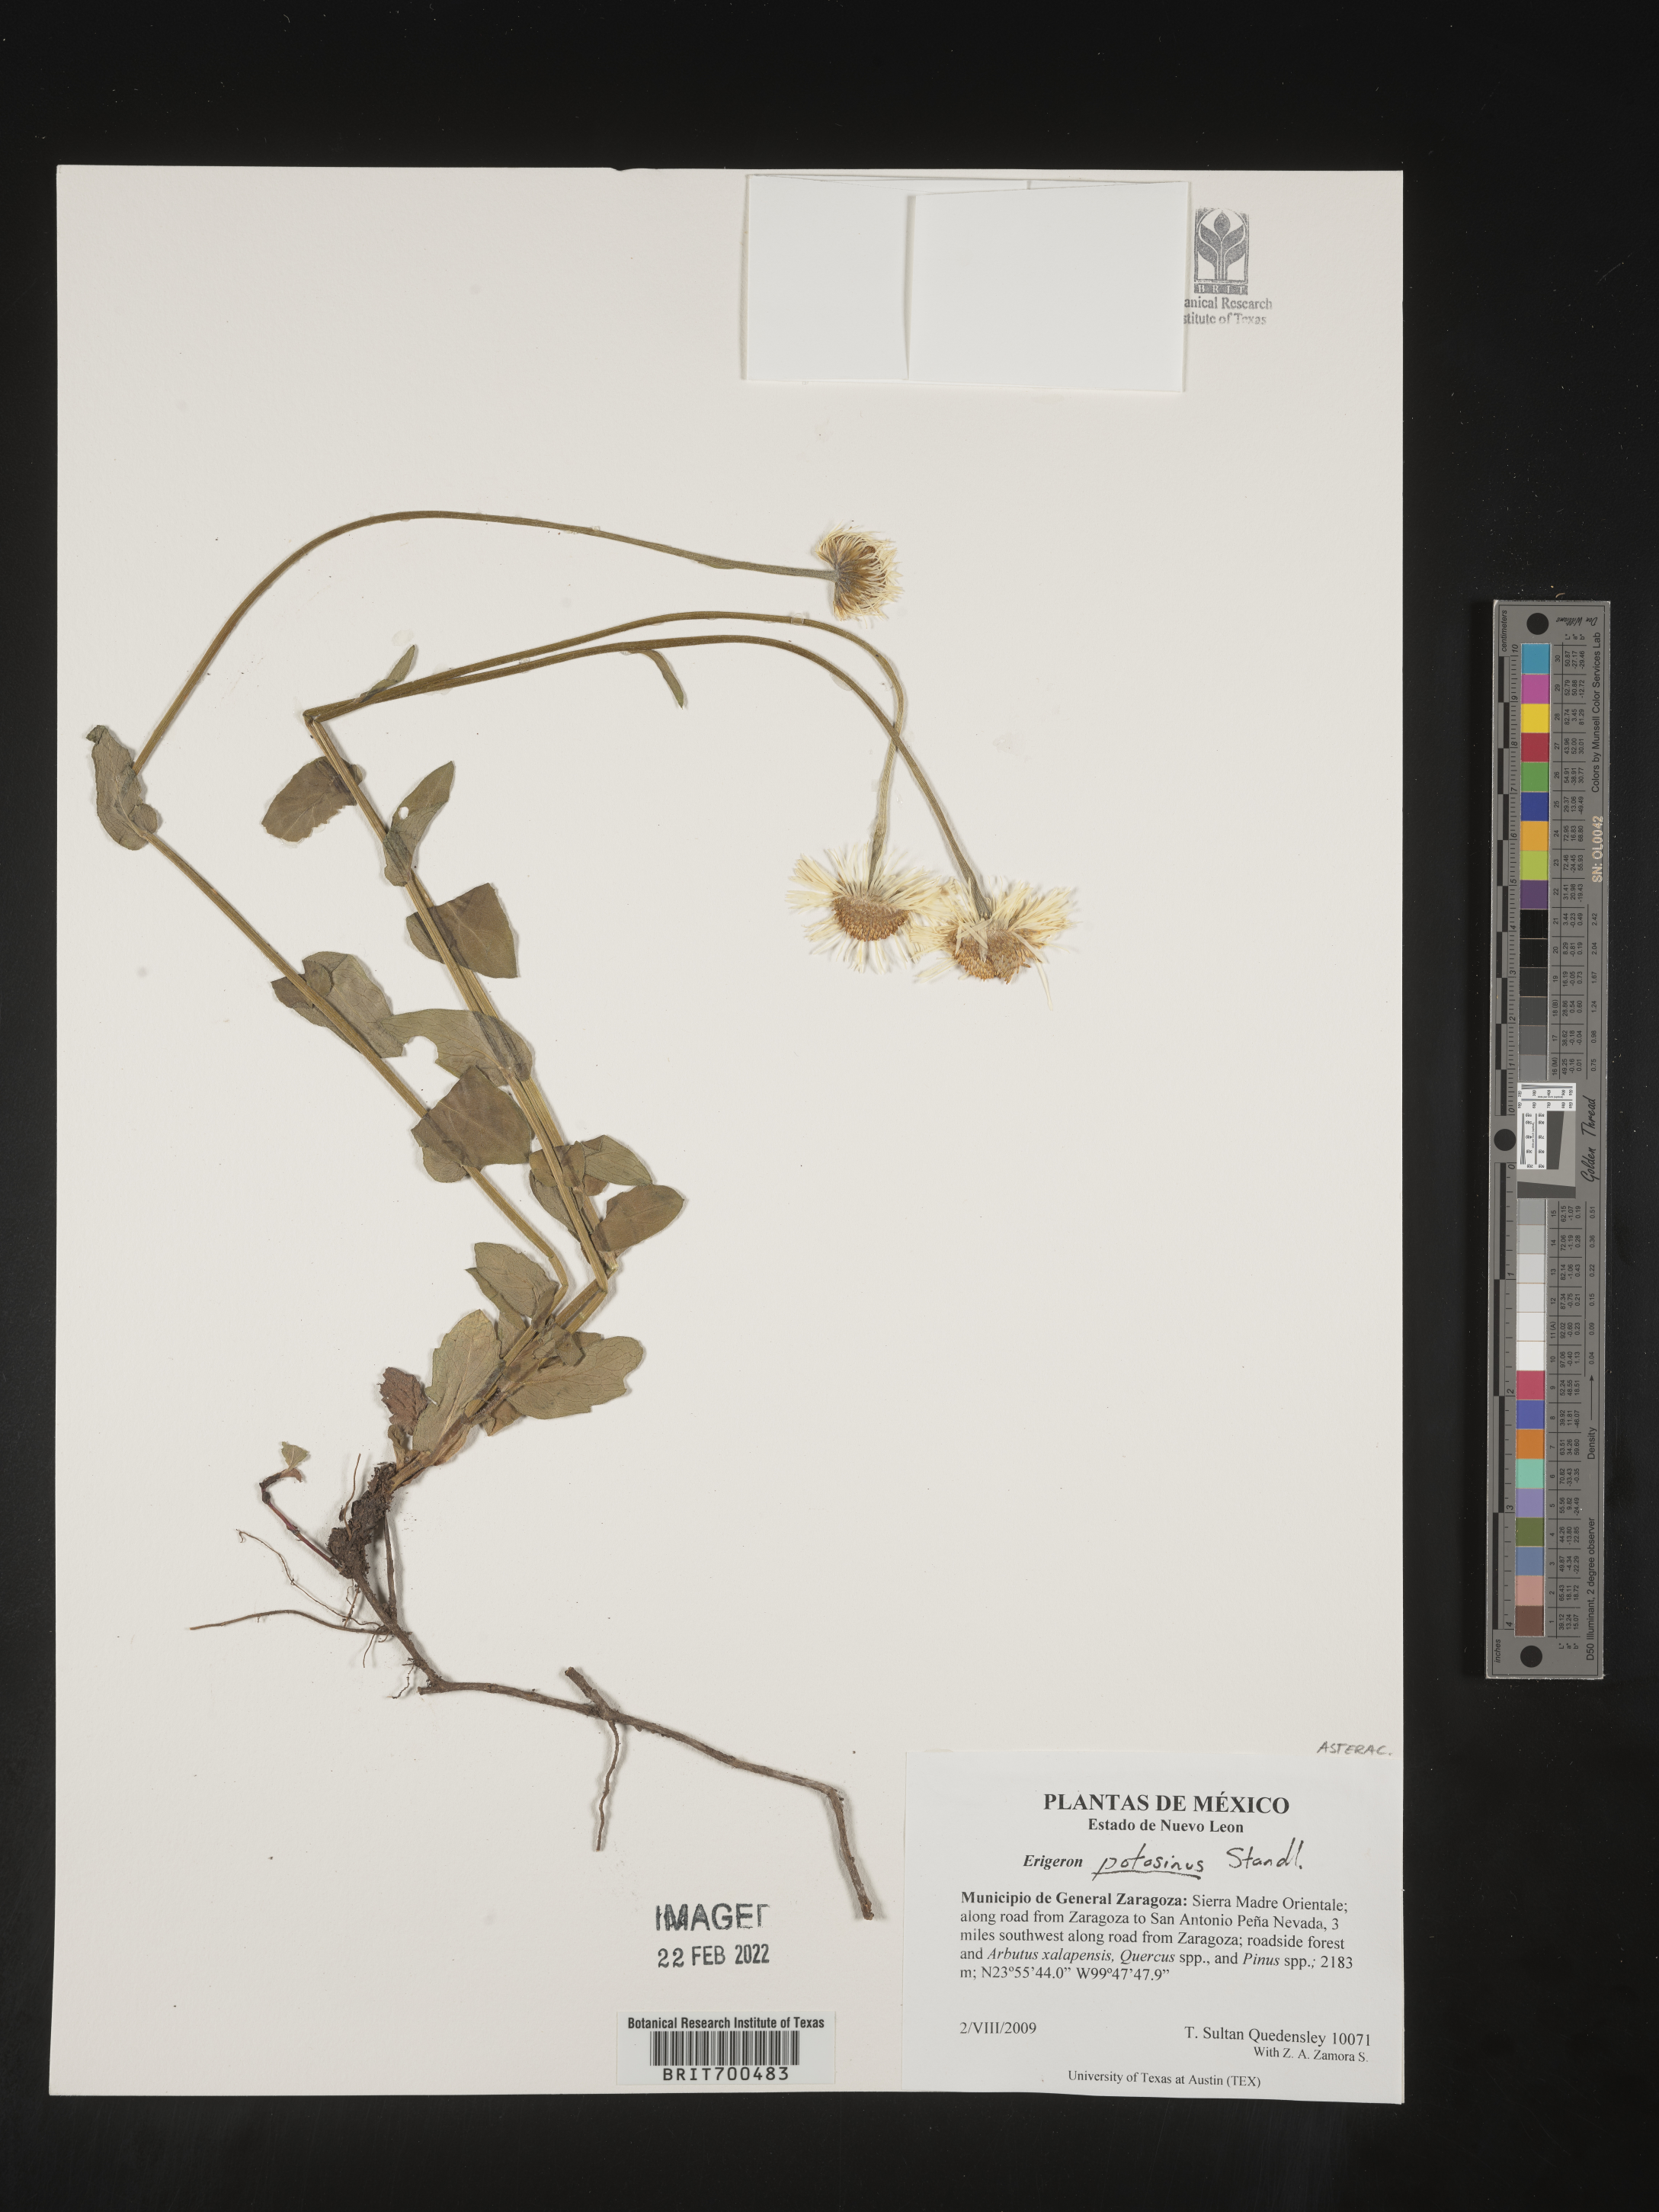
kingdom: Plantae
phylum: Tracheophyta
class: Magnoliopsida
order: Asterales
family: Asteraceae
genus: Erigeron
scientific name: Erigeron
